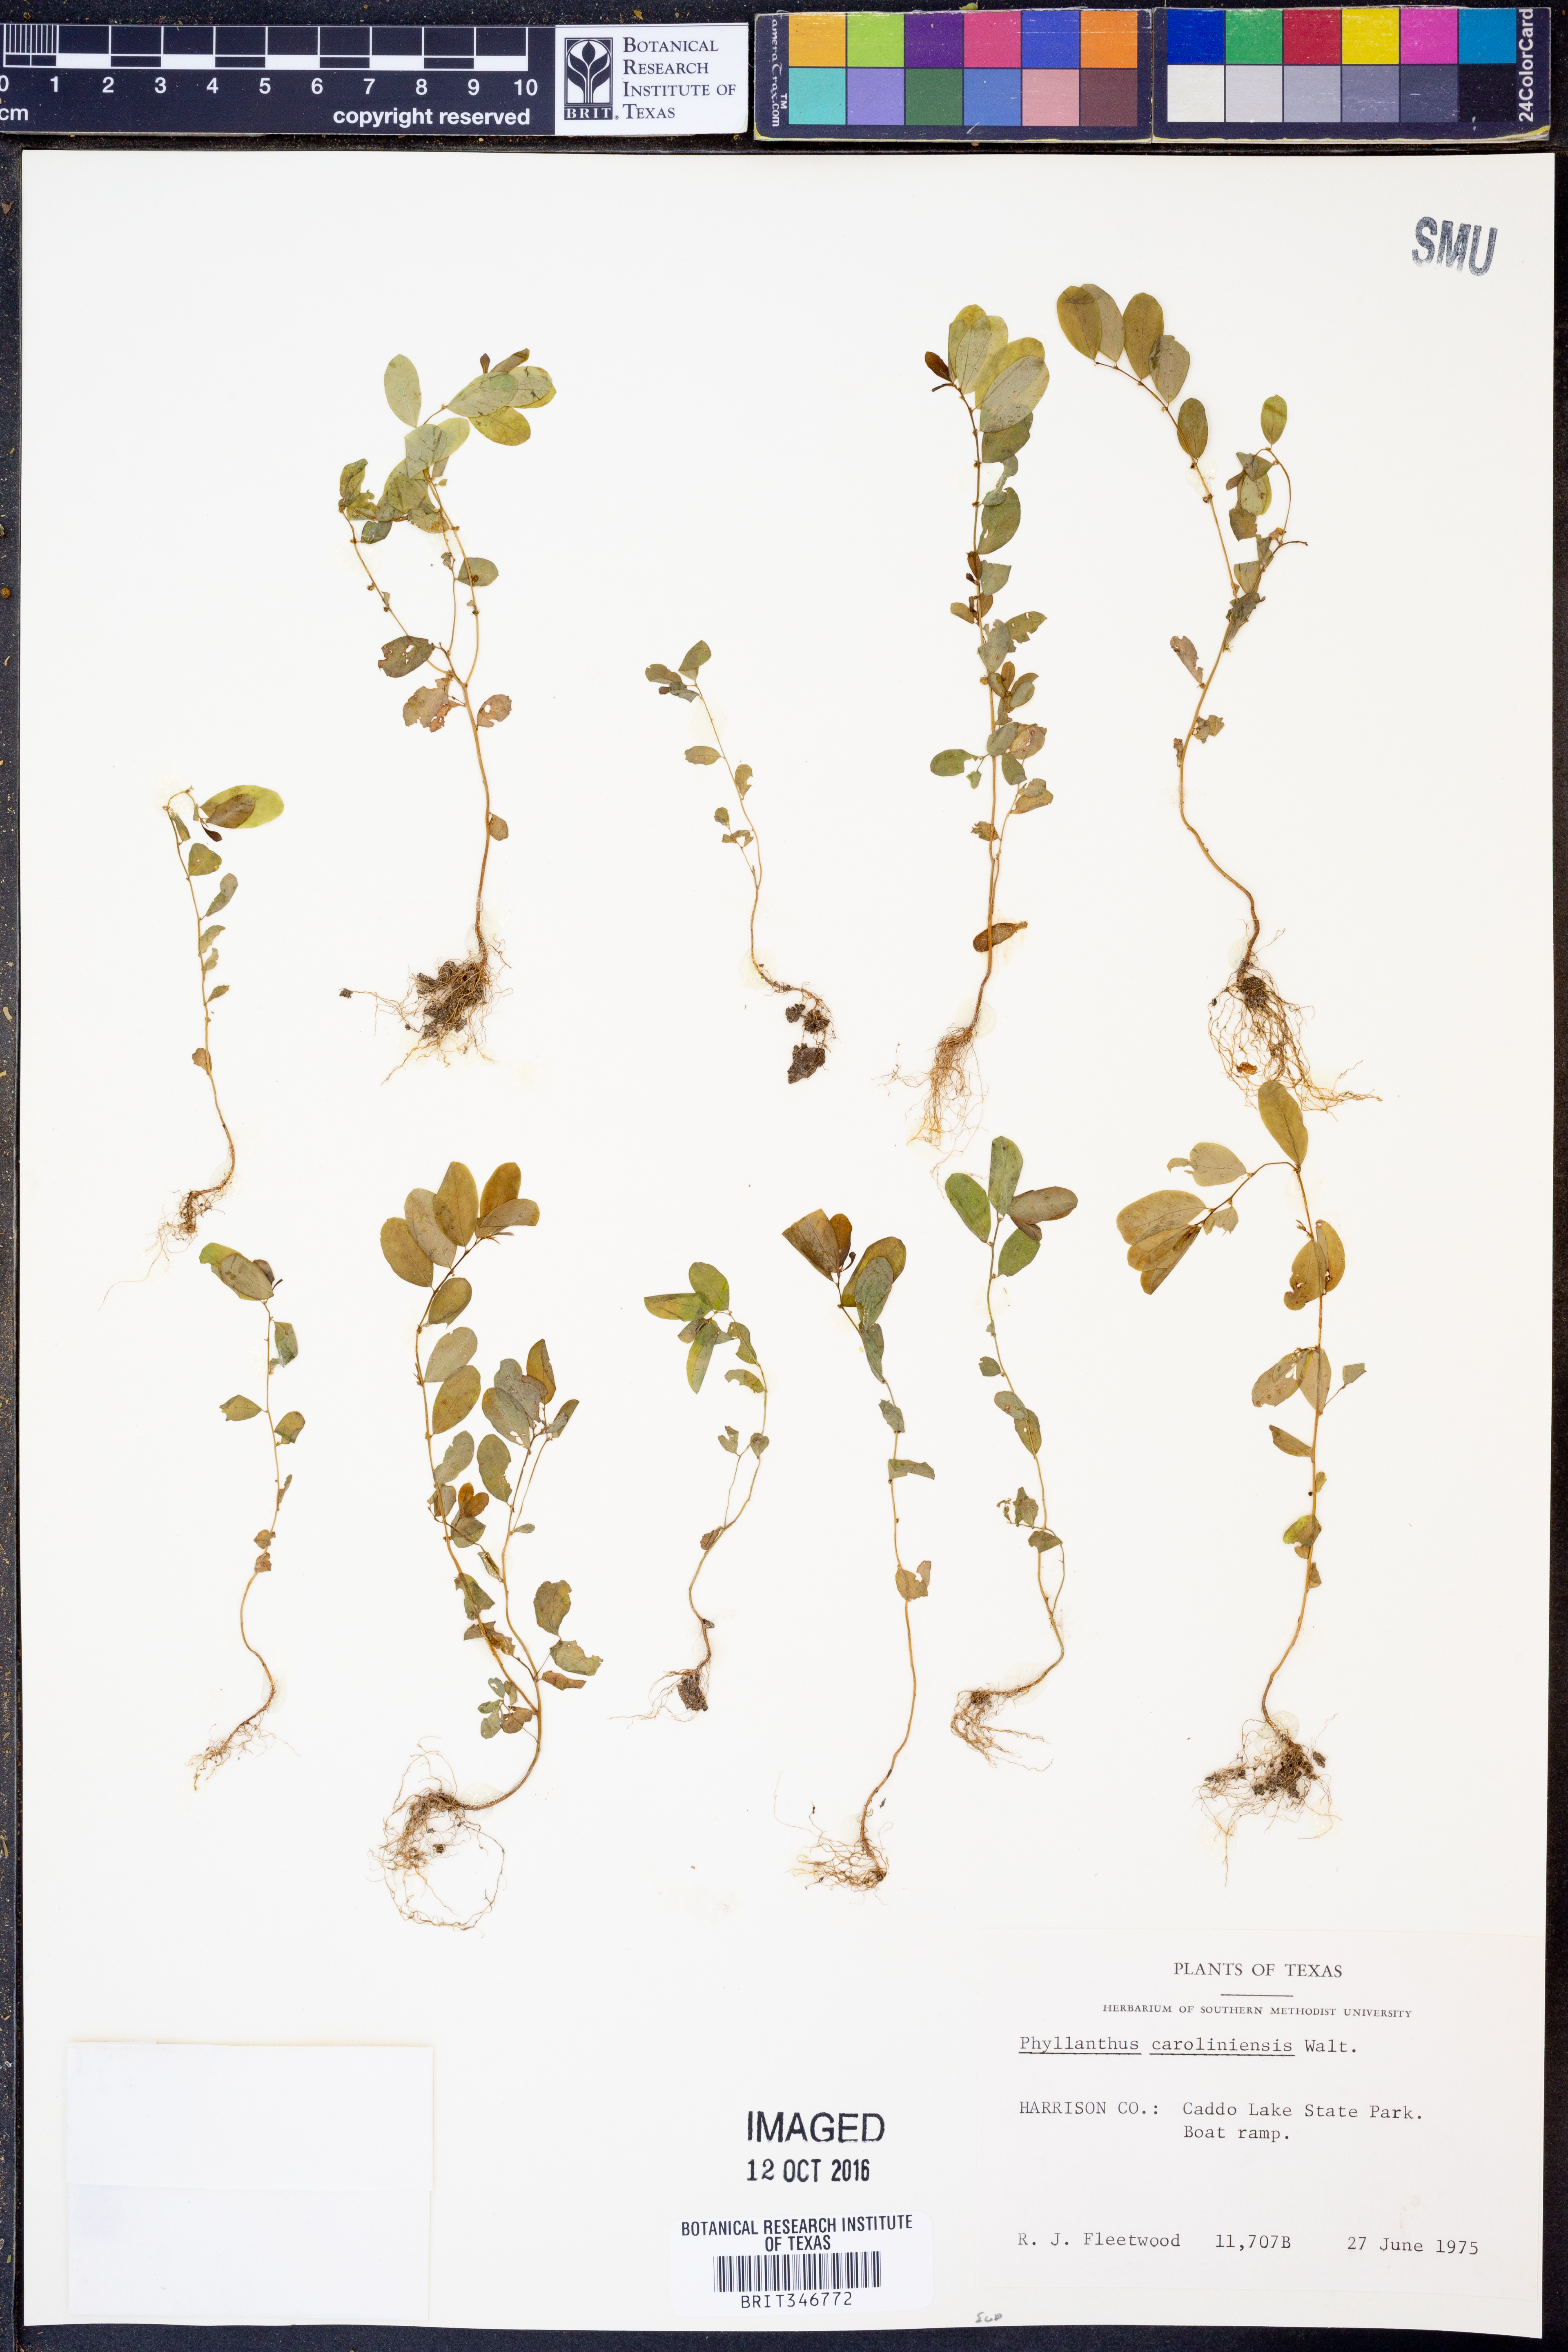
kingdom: Plantae
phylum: Tracheophyta
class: Magnoliopsida
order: Malpighiales
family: Phyllanthaceae
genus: Phyllanthus
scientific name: Phyllanthus caroliniensis
